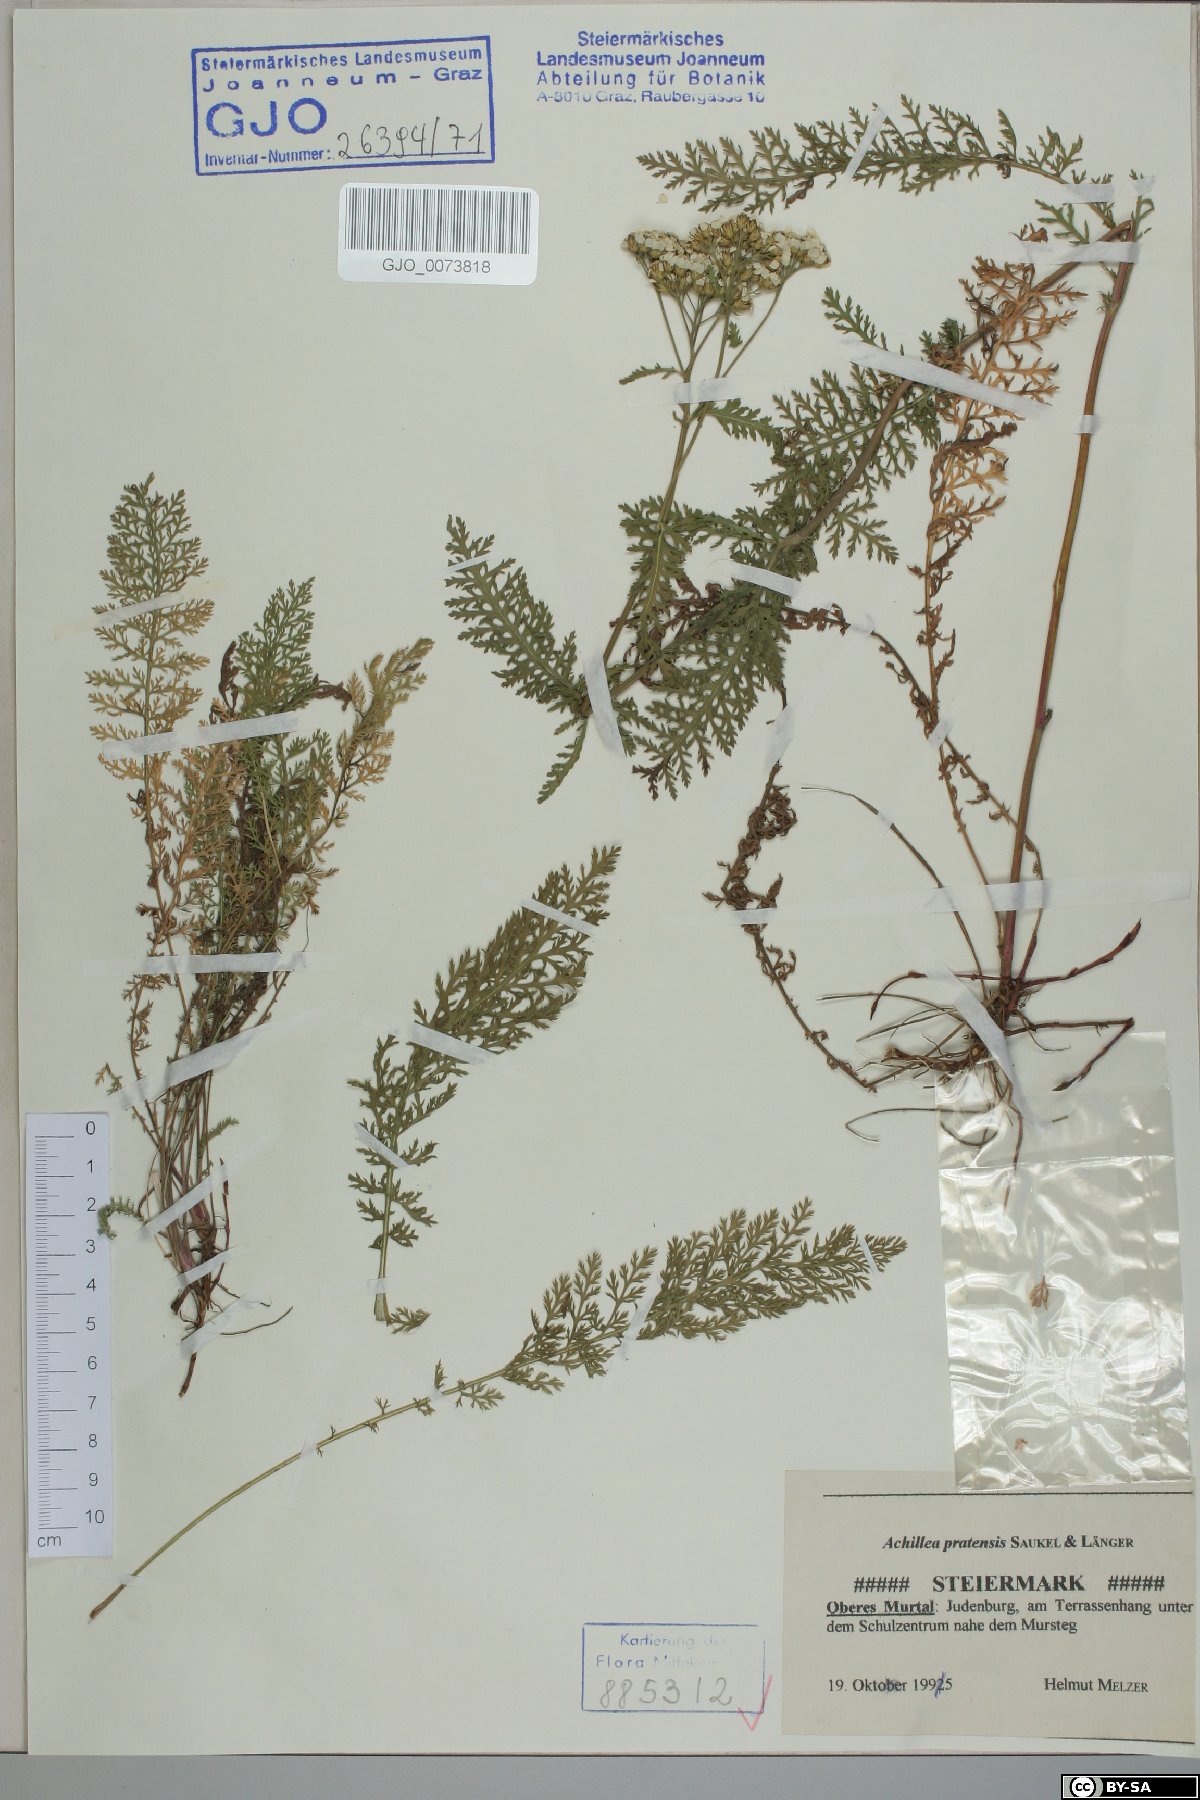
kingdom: Plantae
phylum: Tracheophyta
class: Magnoliopsida
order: Asterales
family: Asteraceae
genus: Achillea
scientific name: Achillea pratensis
